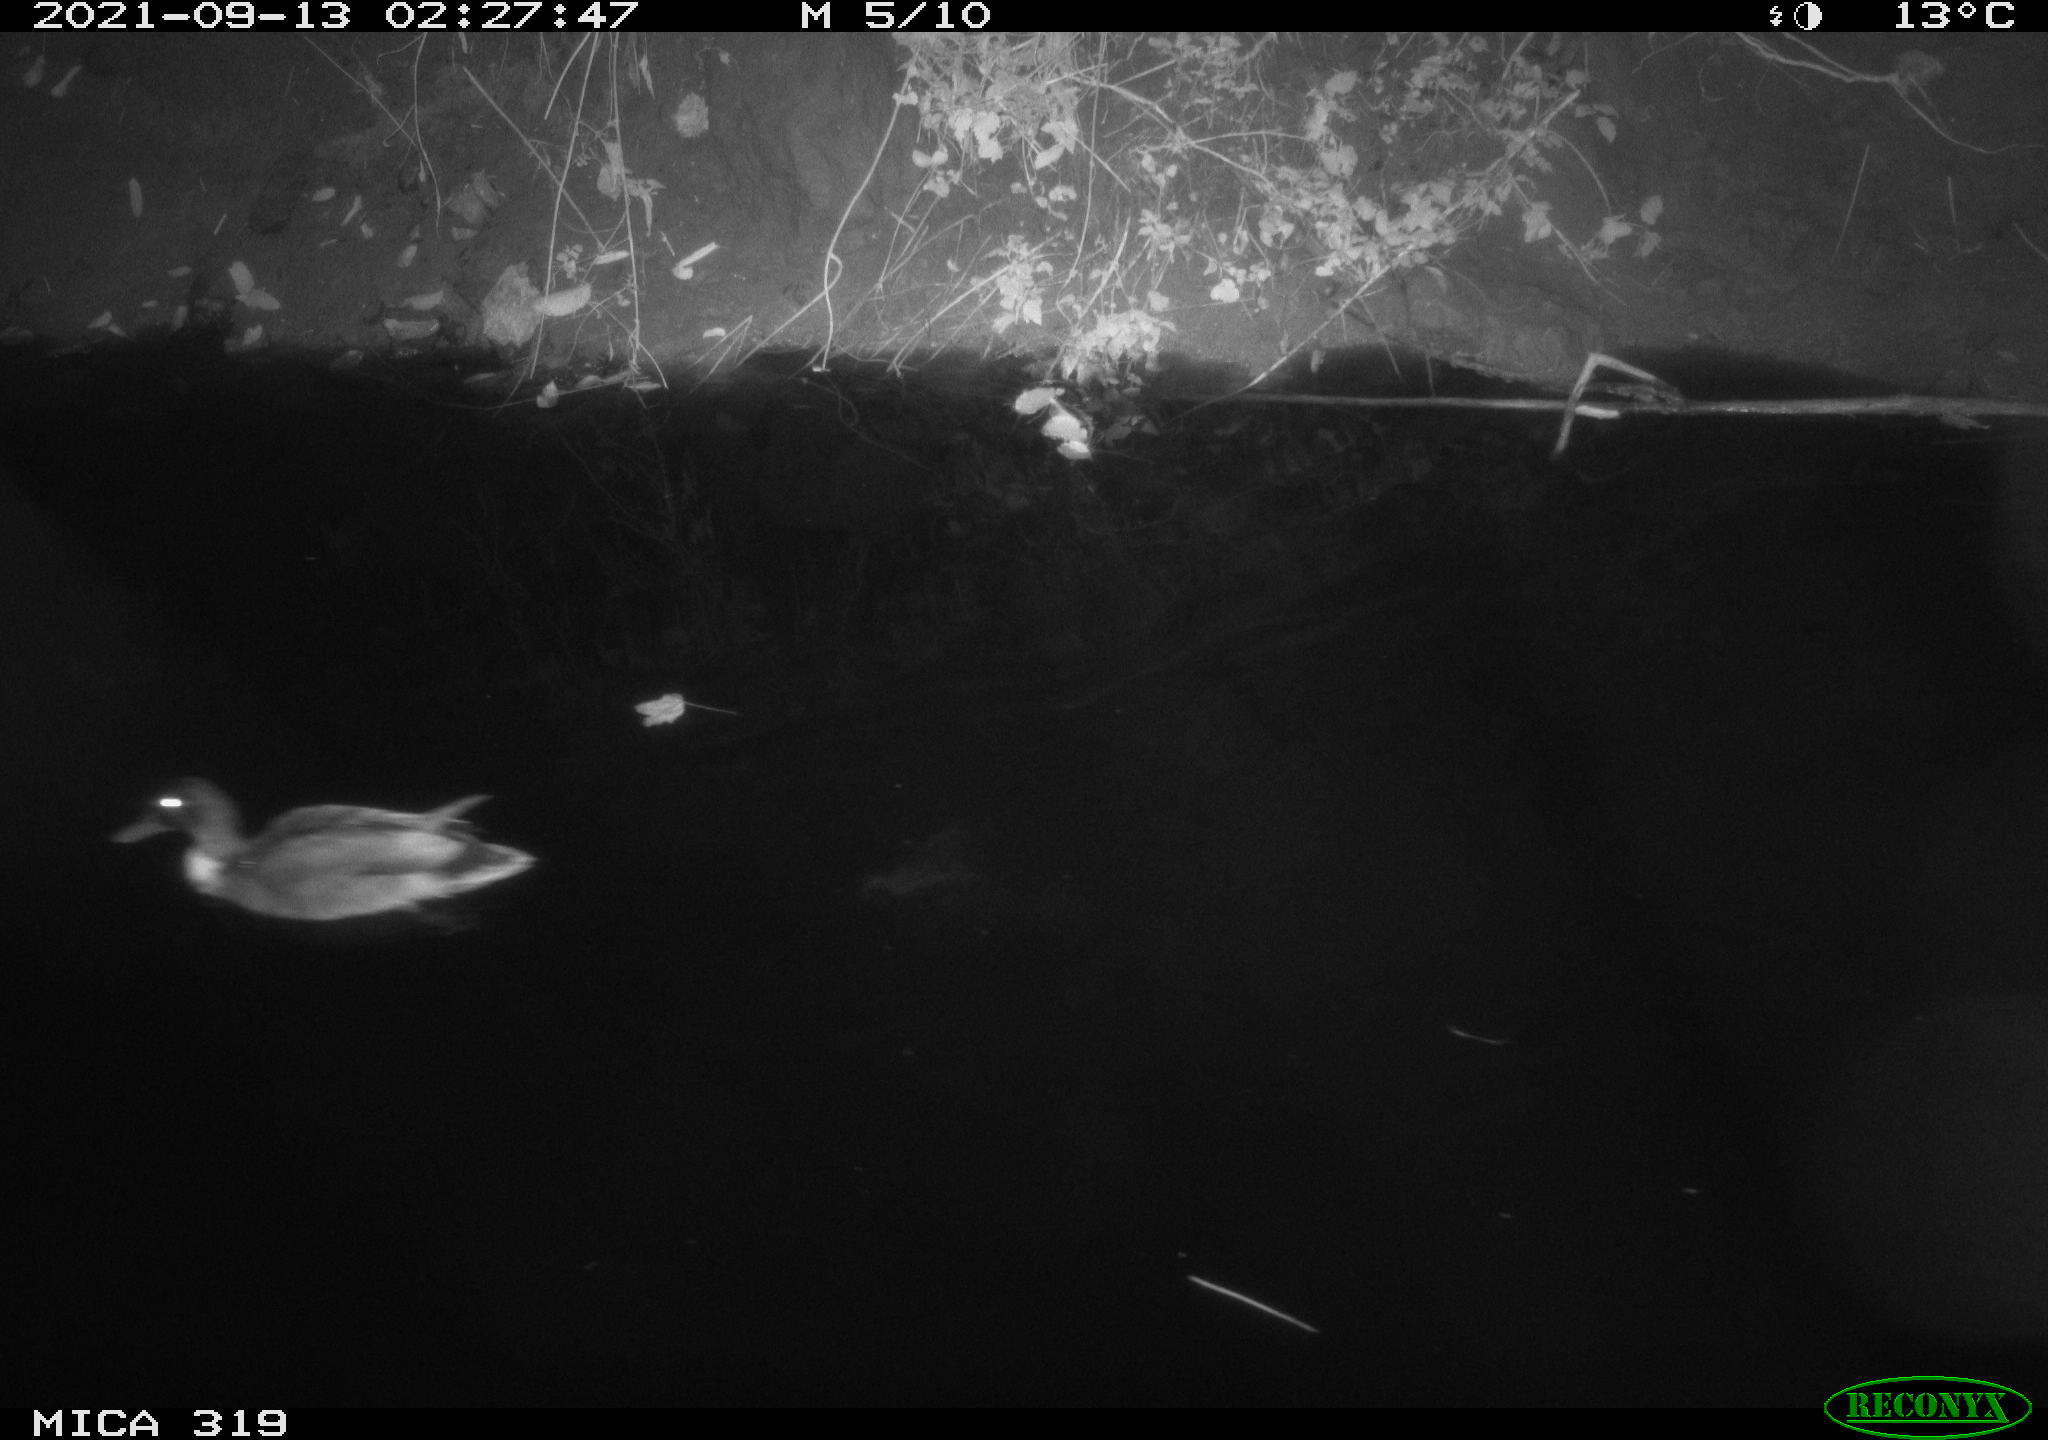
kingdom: Animalia
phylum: Chordata
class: Aves
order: Anseriformes
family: Anatidae
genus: Anas
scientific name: Anas platyrhynchos
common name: Mallard
